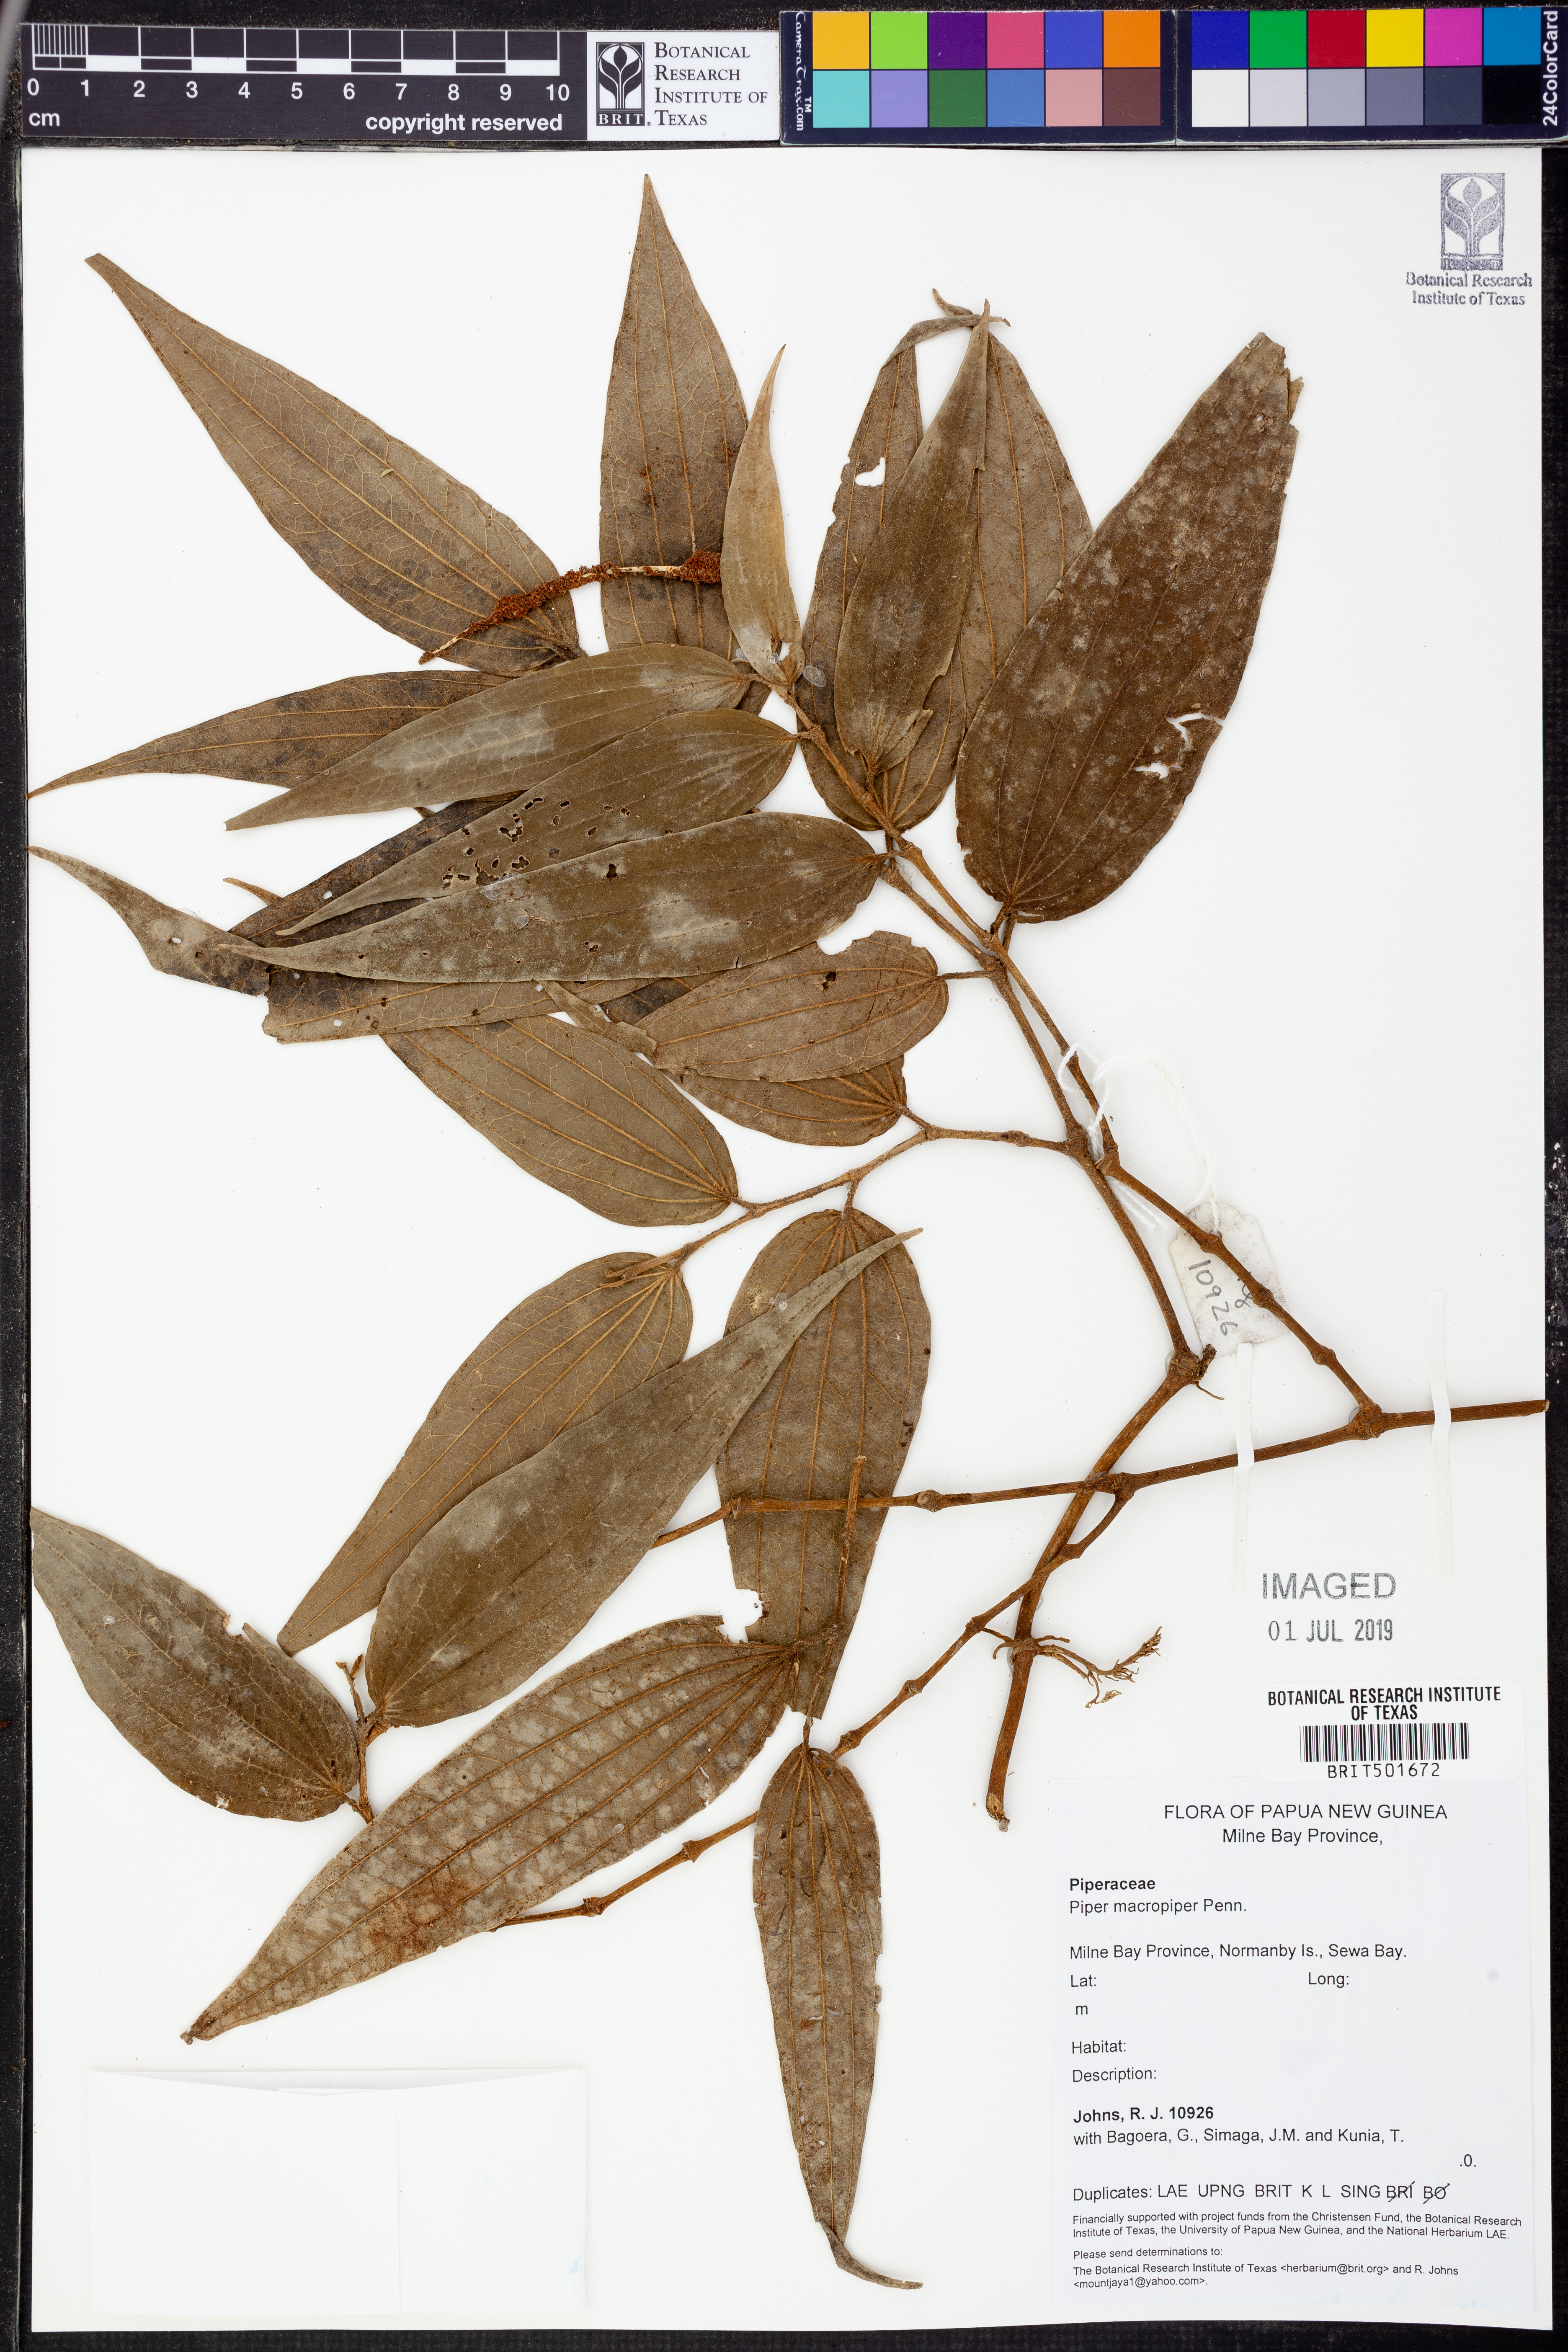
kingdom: Plantae
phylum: Tracheophyta
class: Magnoliopsida
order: Piperales
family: Piperaceae
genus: Piper
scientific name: Piper macropiper
